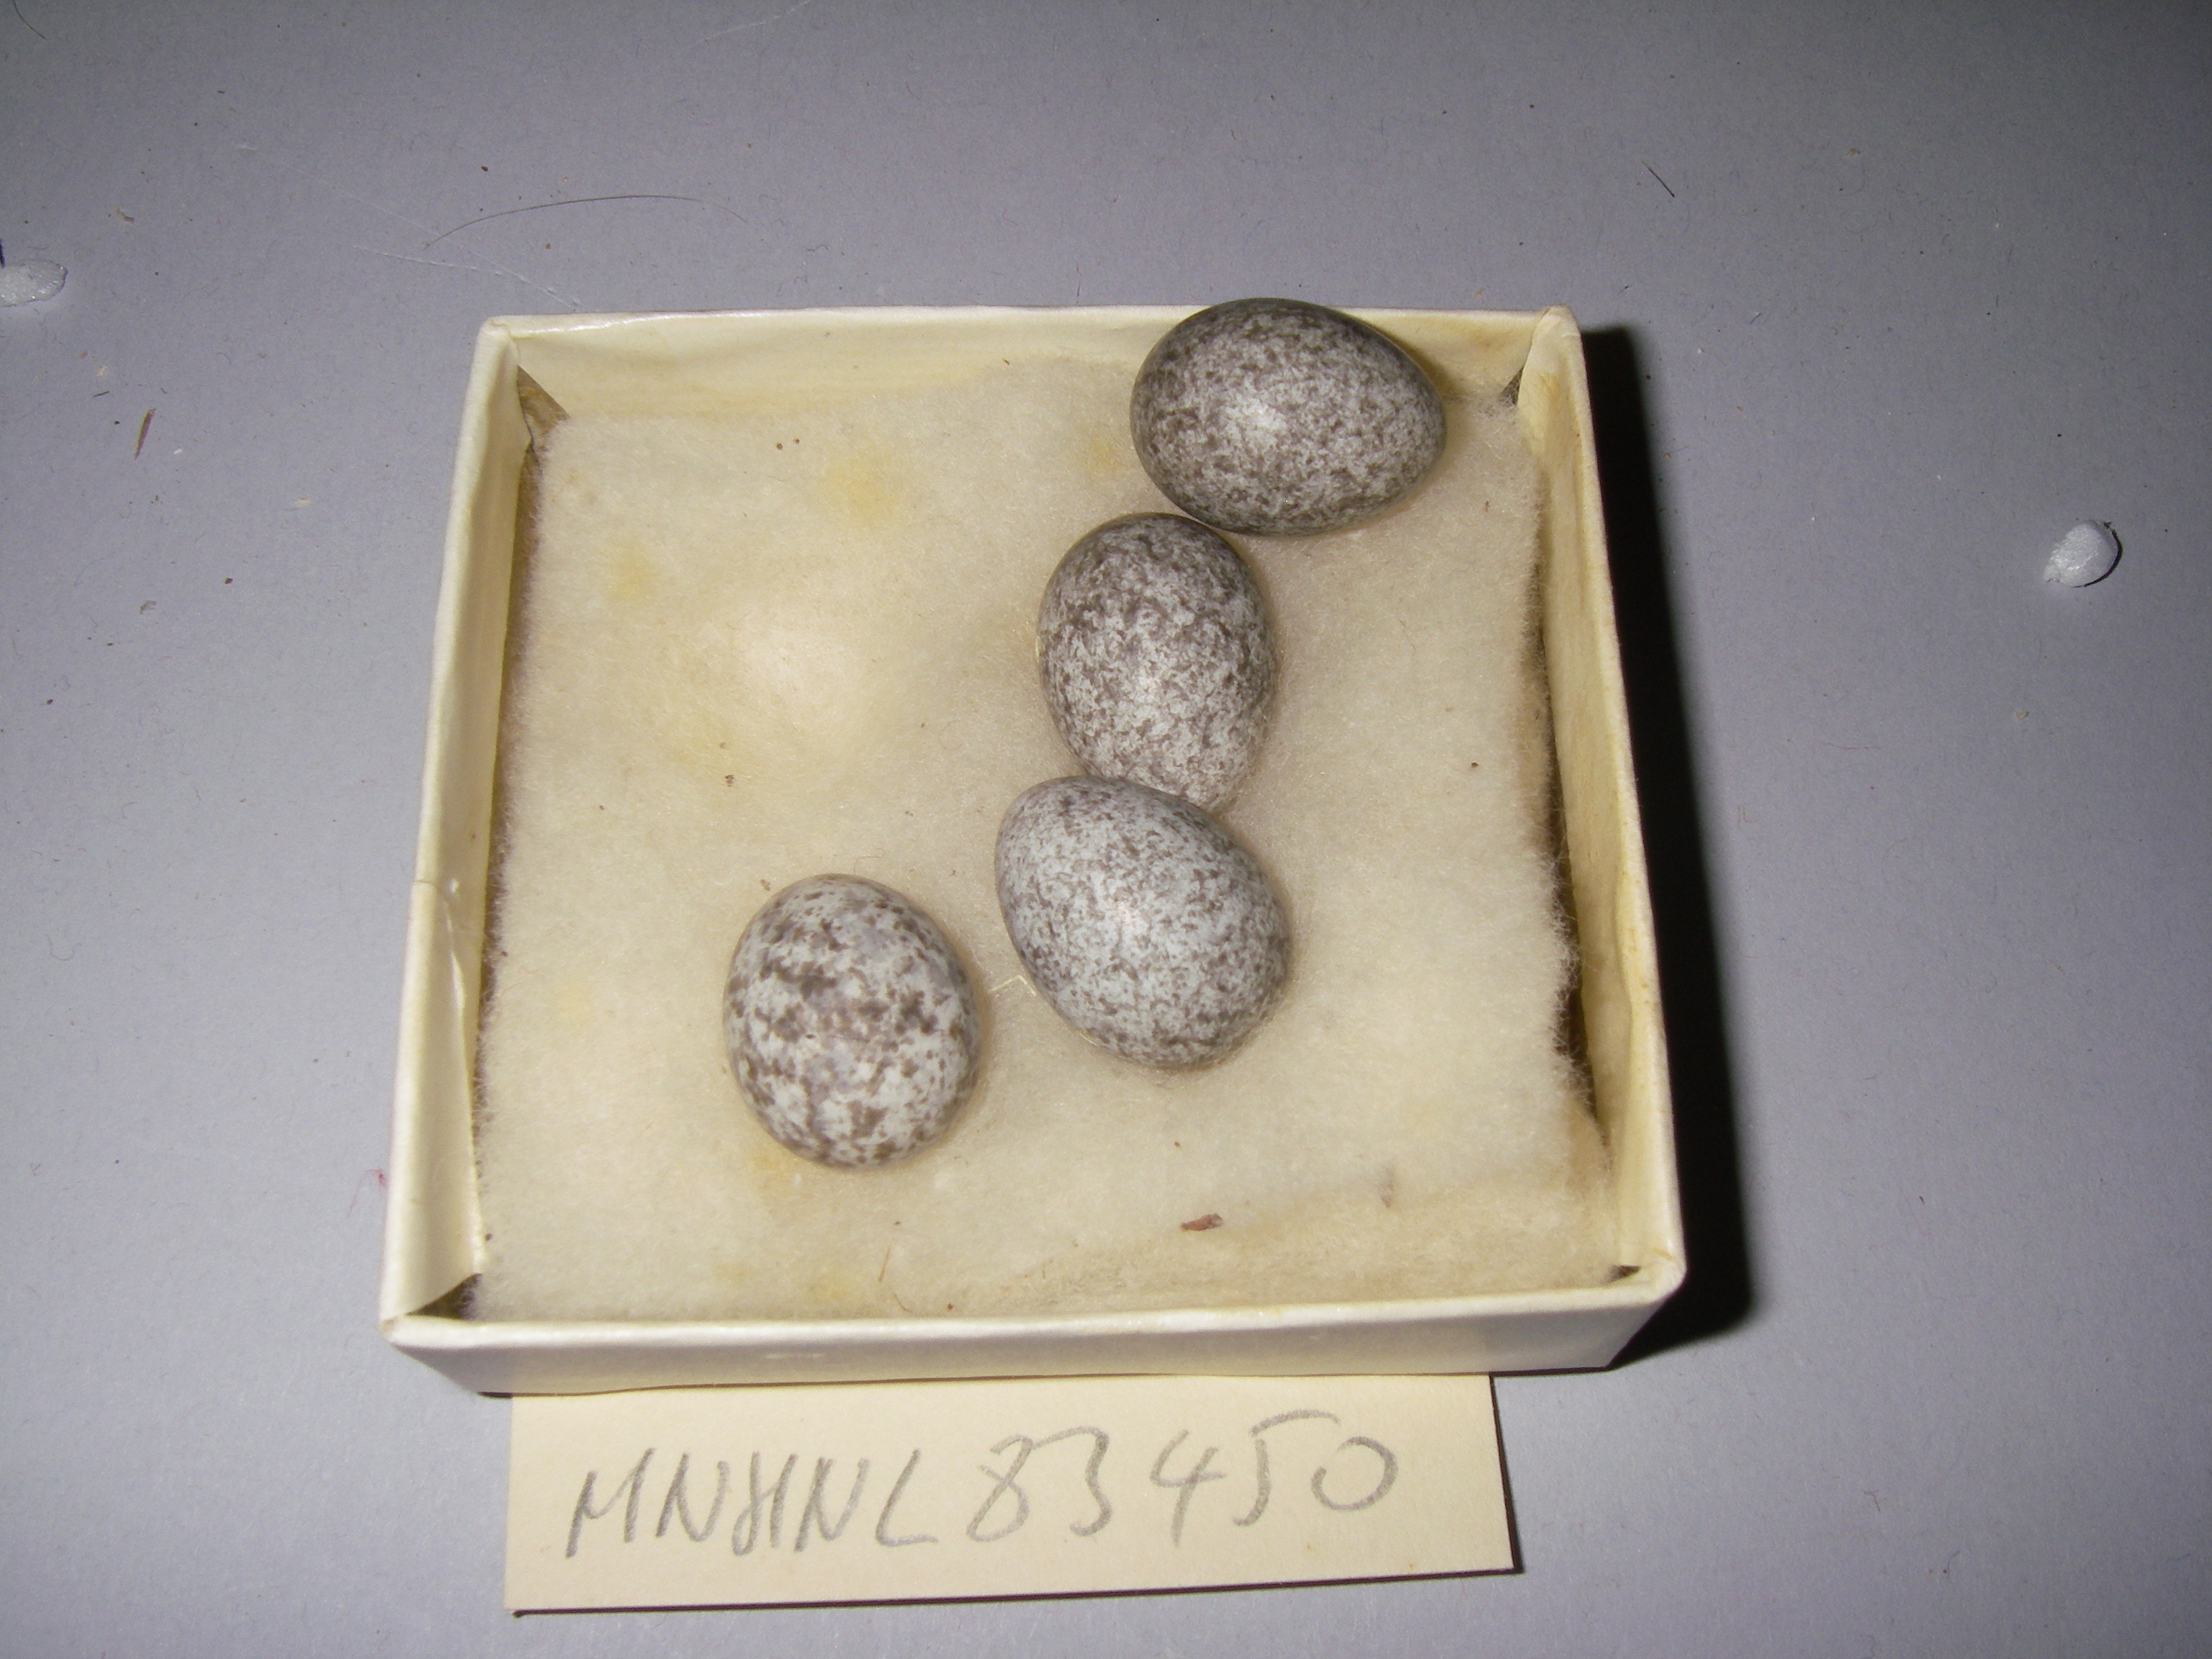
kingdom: Animalia
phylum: Chordata
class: Aves
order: Passeriformes
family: Passeridae
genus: Passer
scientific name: Passer montanus
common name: Eurasian tree sparrow
